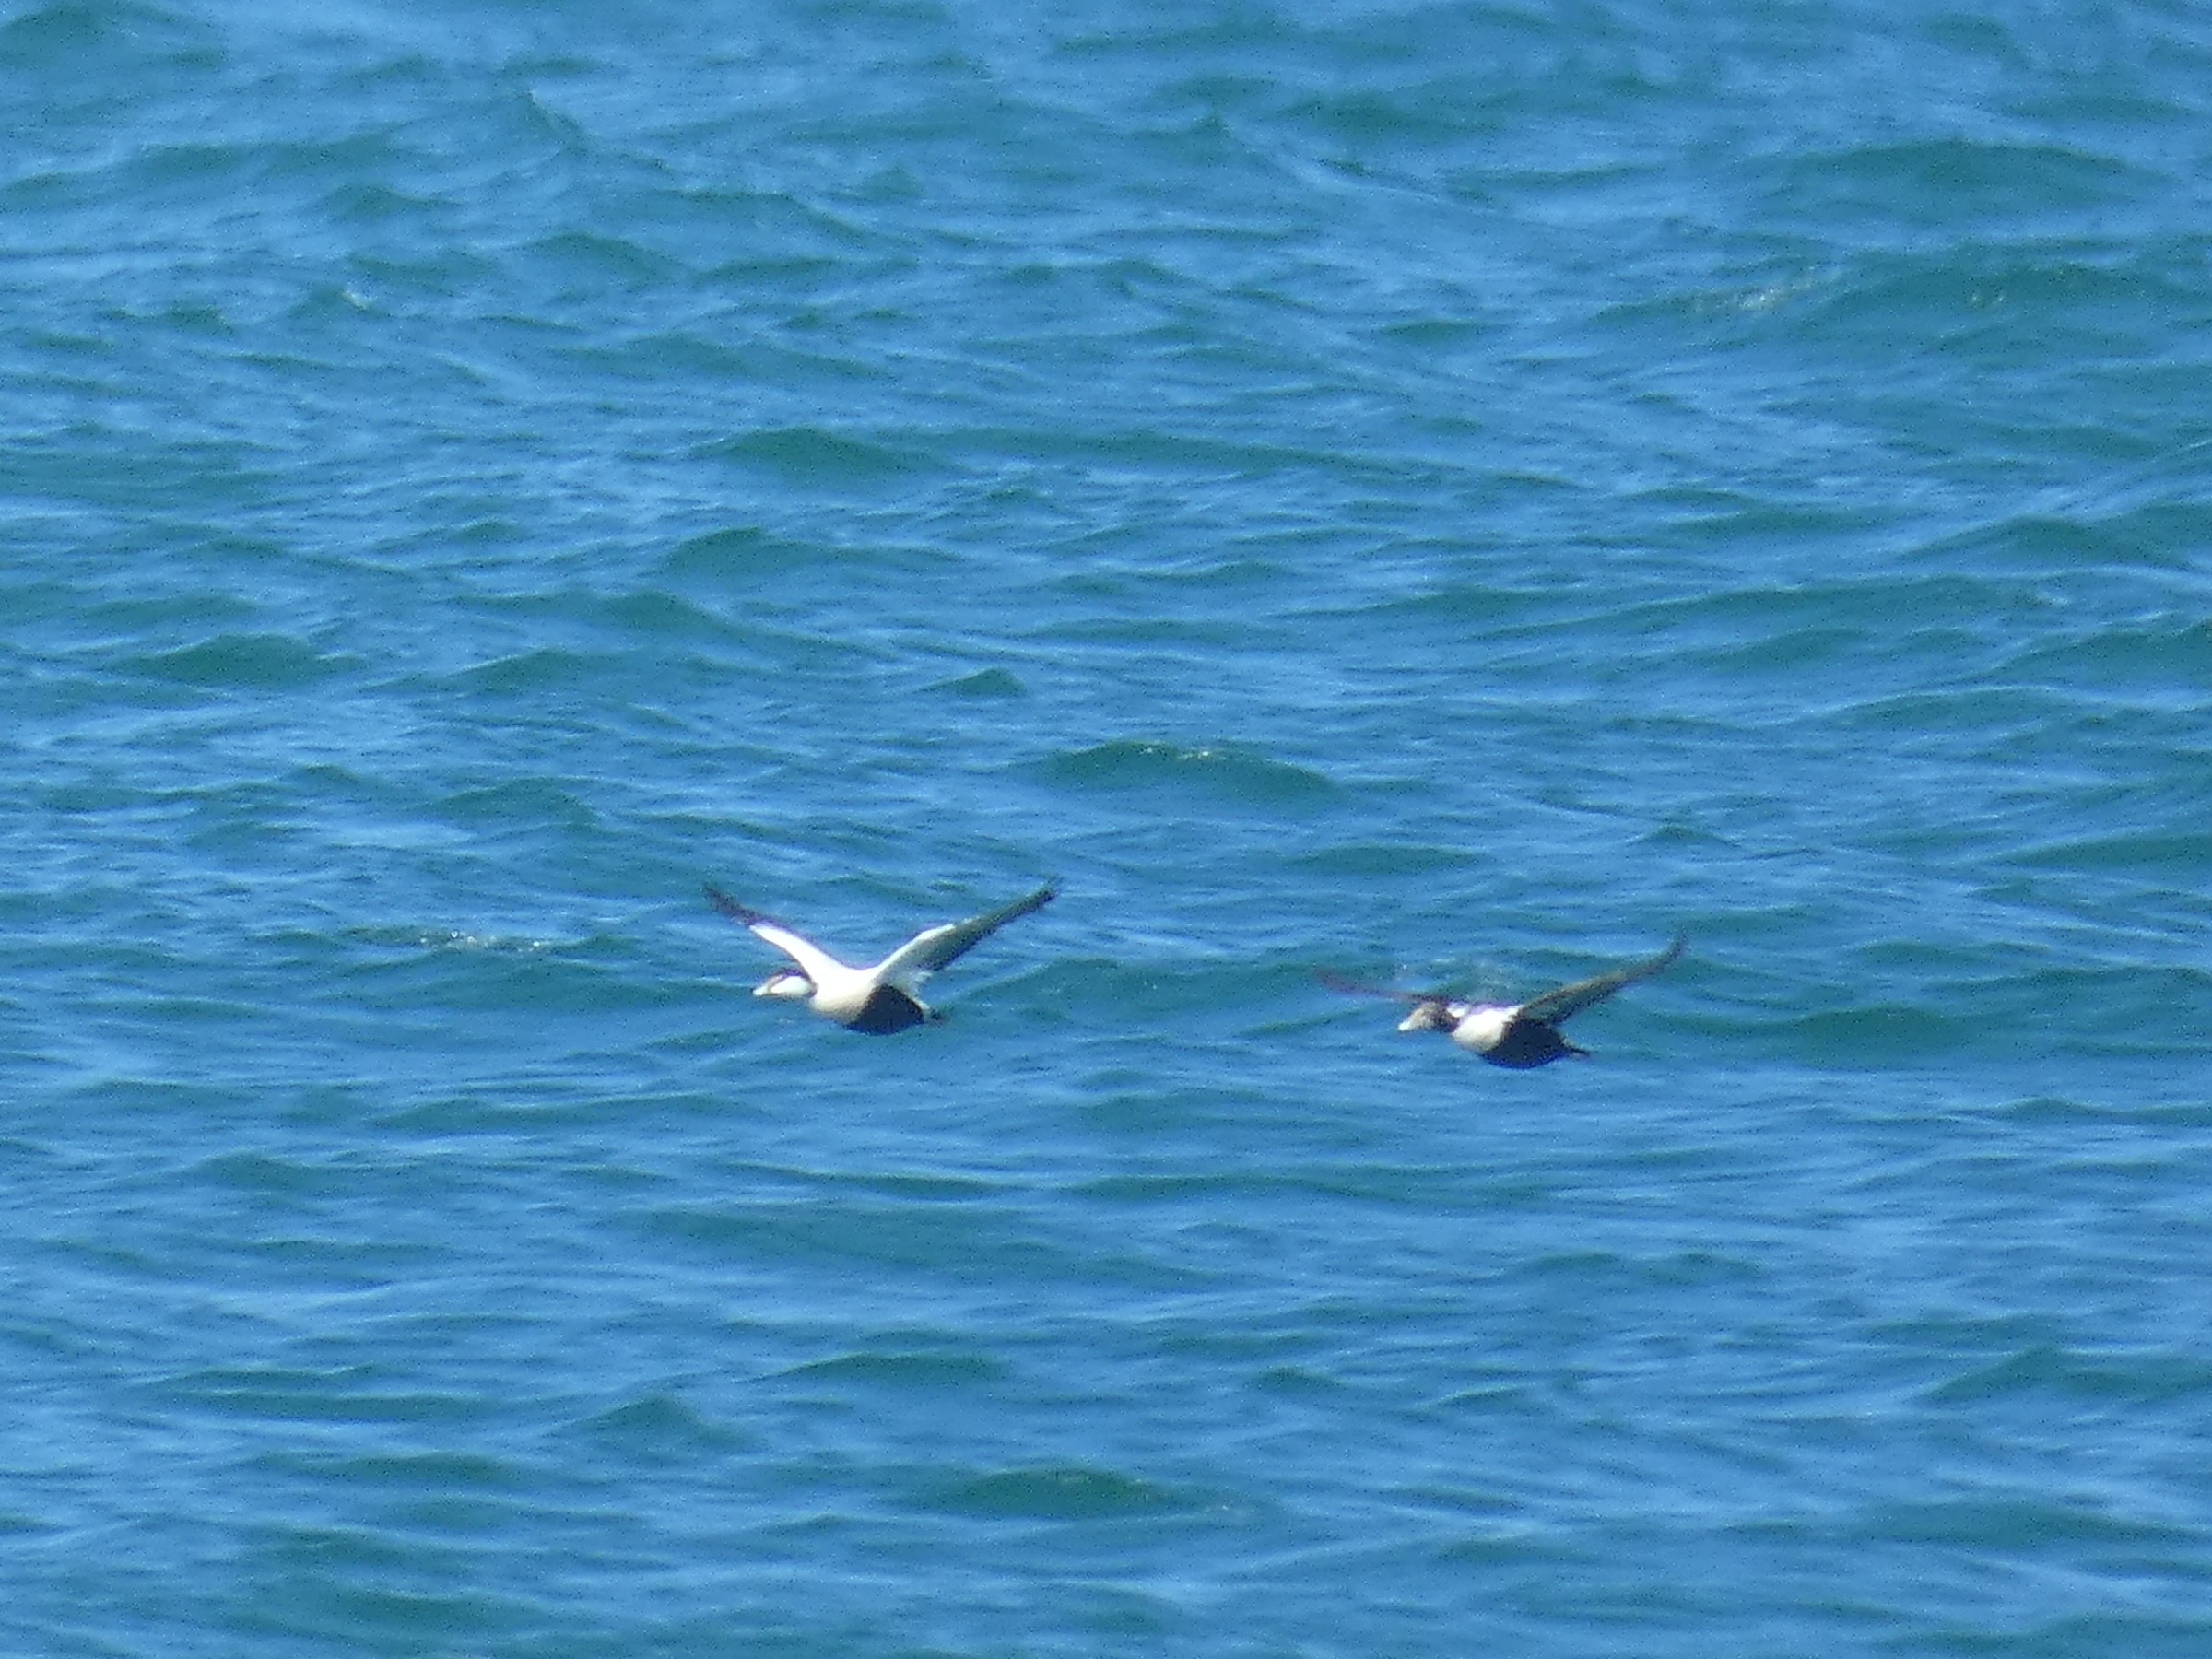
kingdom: Animalia
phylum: Chordata
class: Aves
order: Anseriformes
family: Anatidae
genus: Somateria
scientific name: Somateria mollissima
